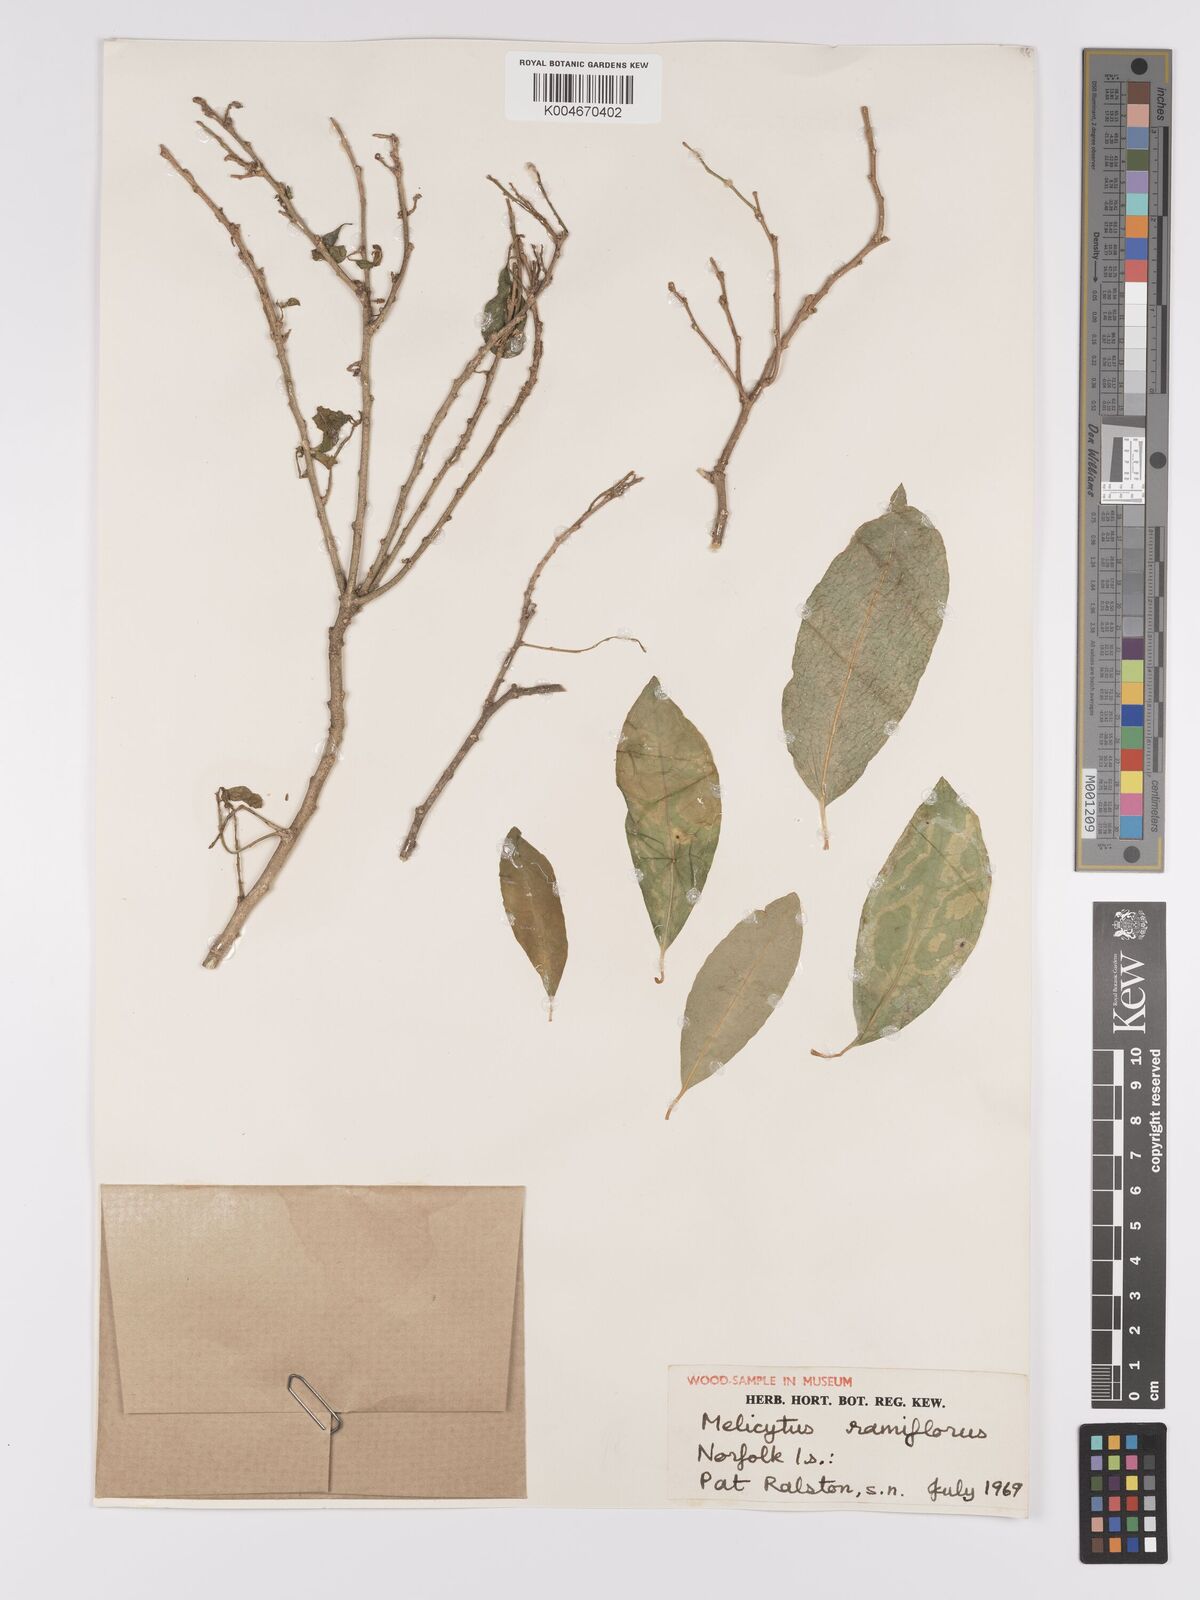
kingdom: Plantae
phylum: Tracheophyta
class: Magnoliopsida
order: Malpighiales
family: Violaceae
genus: Melicytus
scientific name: Melicytus ramiflorus
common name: Mahoe
